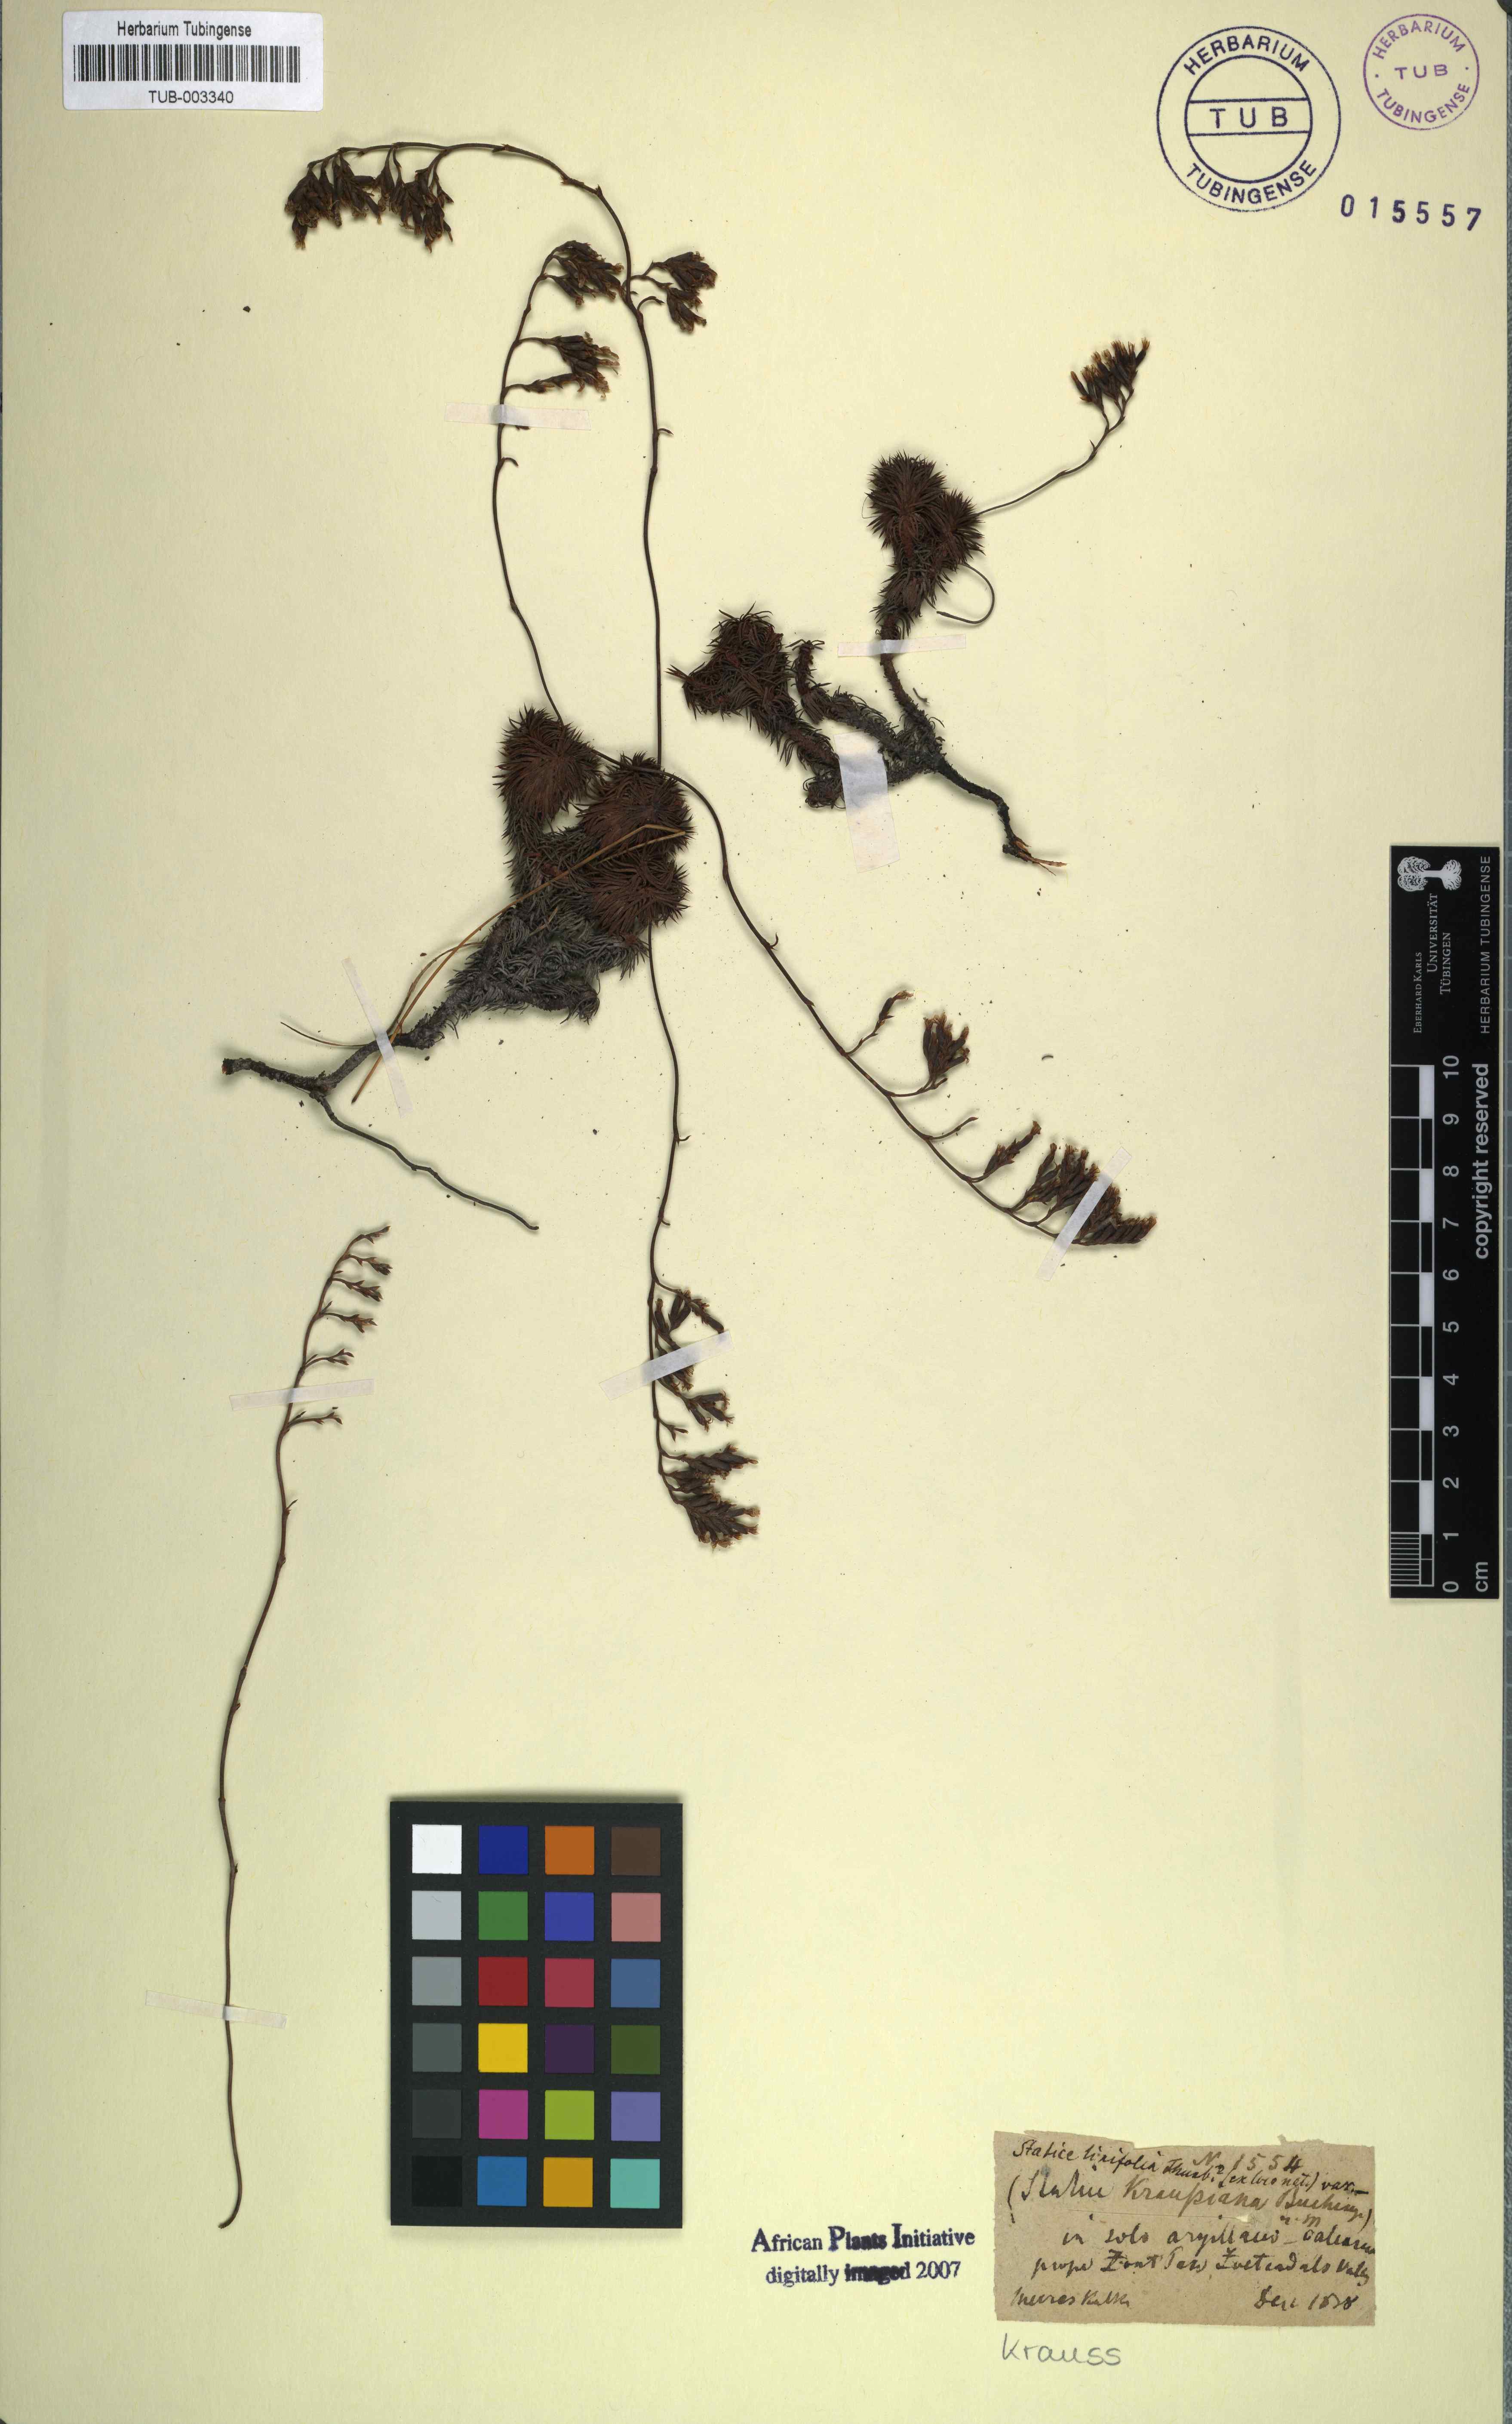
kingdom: Plantae
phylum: Tracheophyta
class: Magnoliopsida
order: Caryophyllales
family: Plumbaginaceae
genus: Limonium
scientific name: Limonium kraussianum
